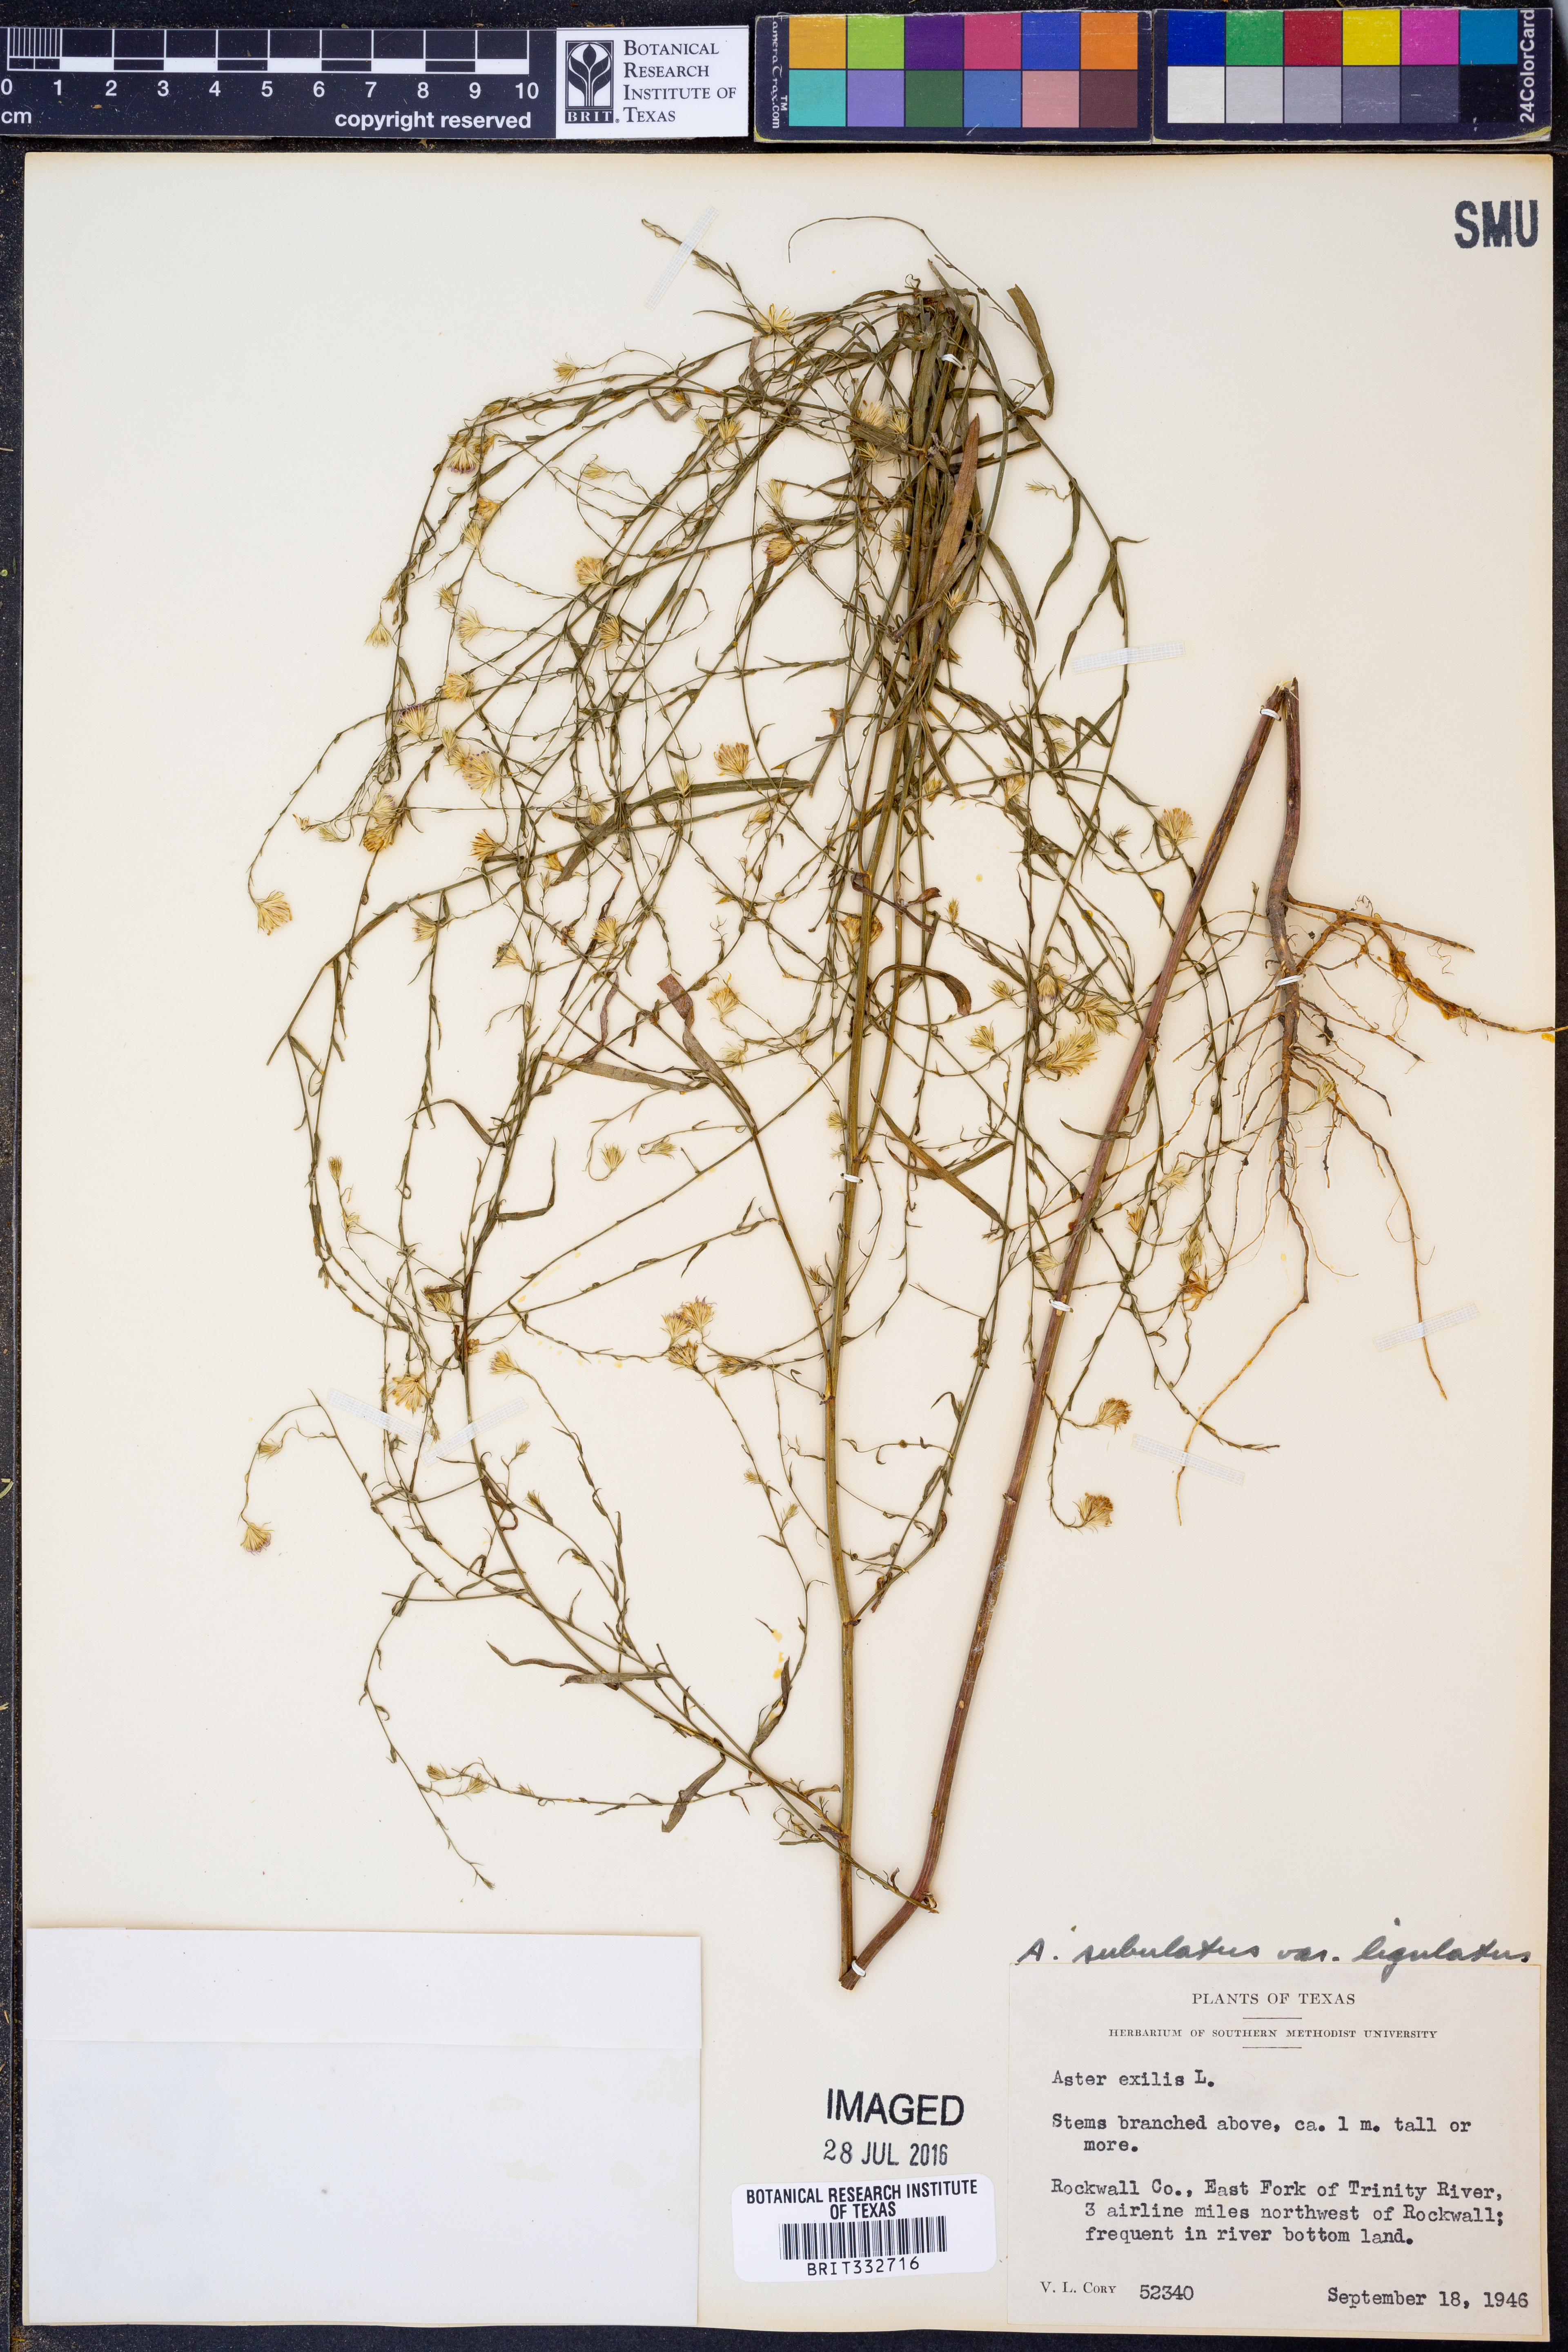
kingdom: Plantae
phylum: Tracheophyta
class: Magnoliopsida
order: Asterales
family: Asteraceae
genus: Symphyotrichum
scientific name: Symphyotrichum subulatum
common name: Annual saltmarsh aster
